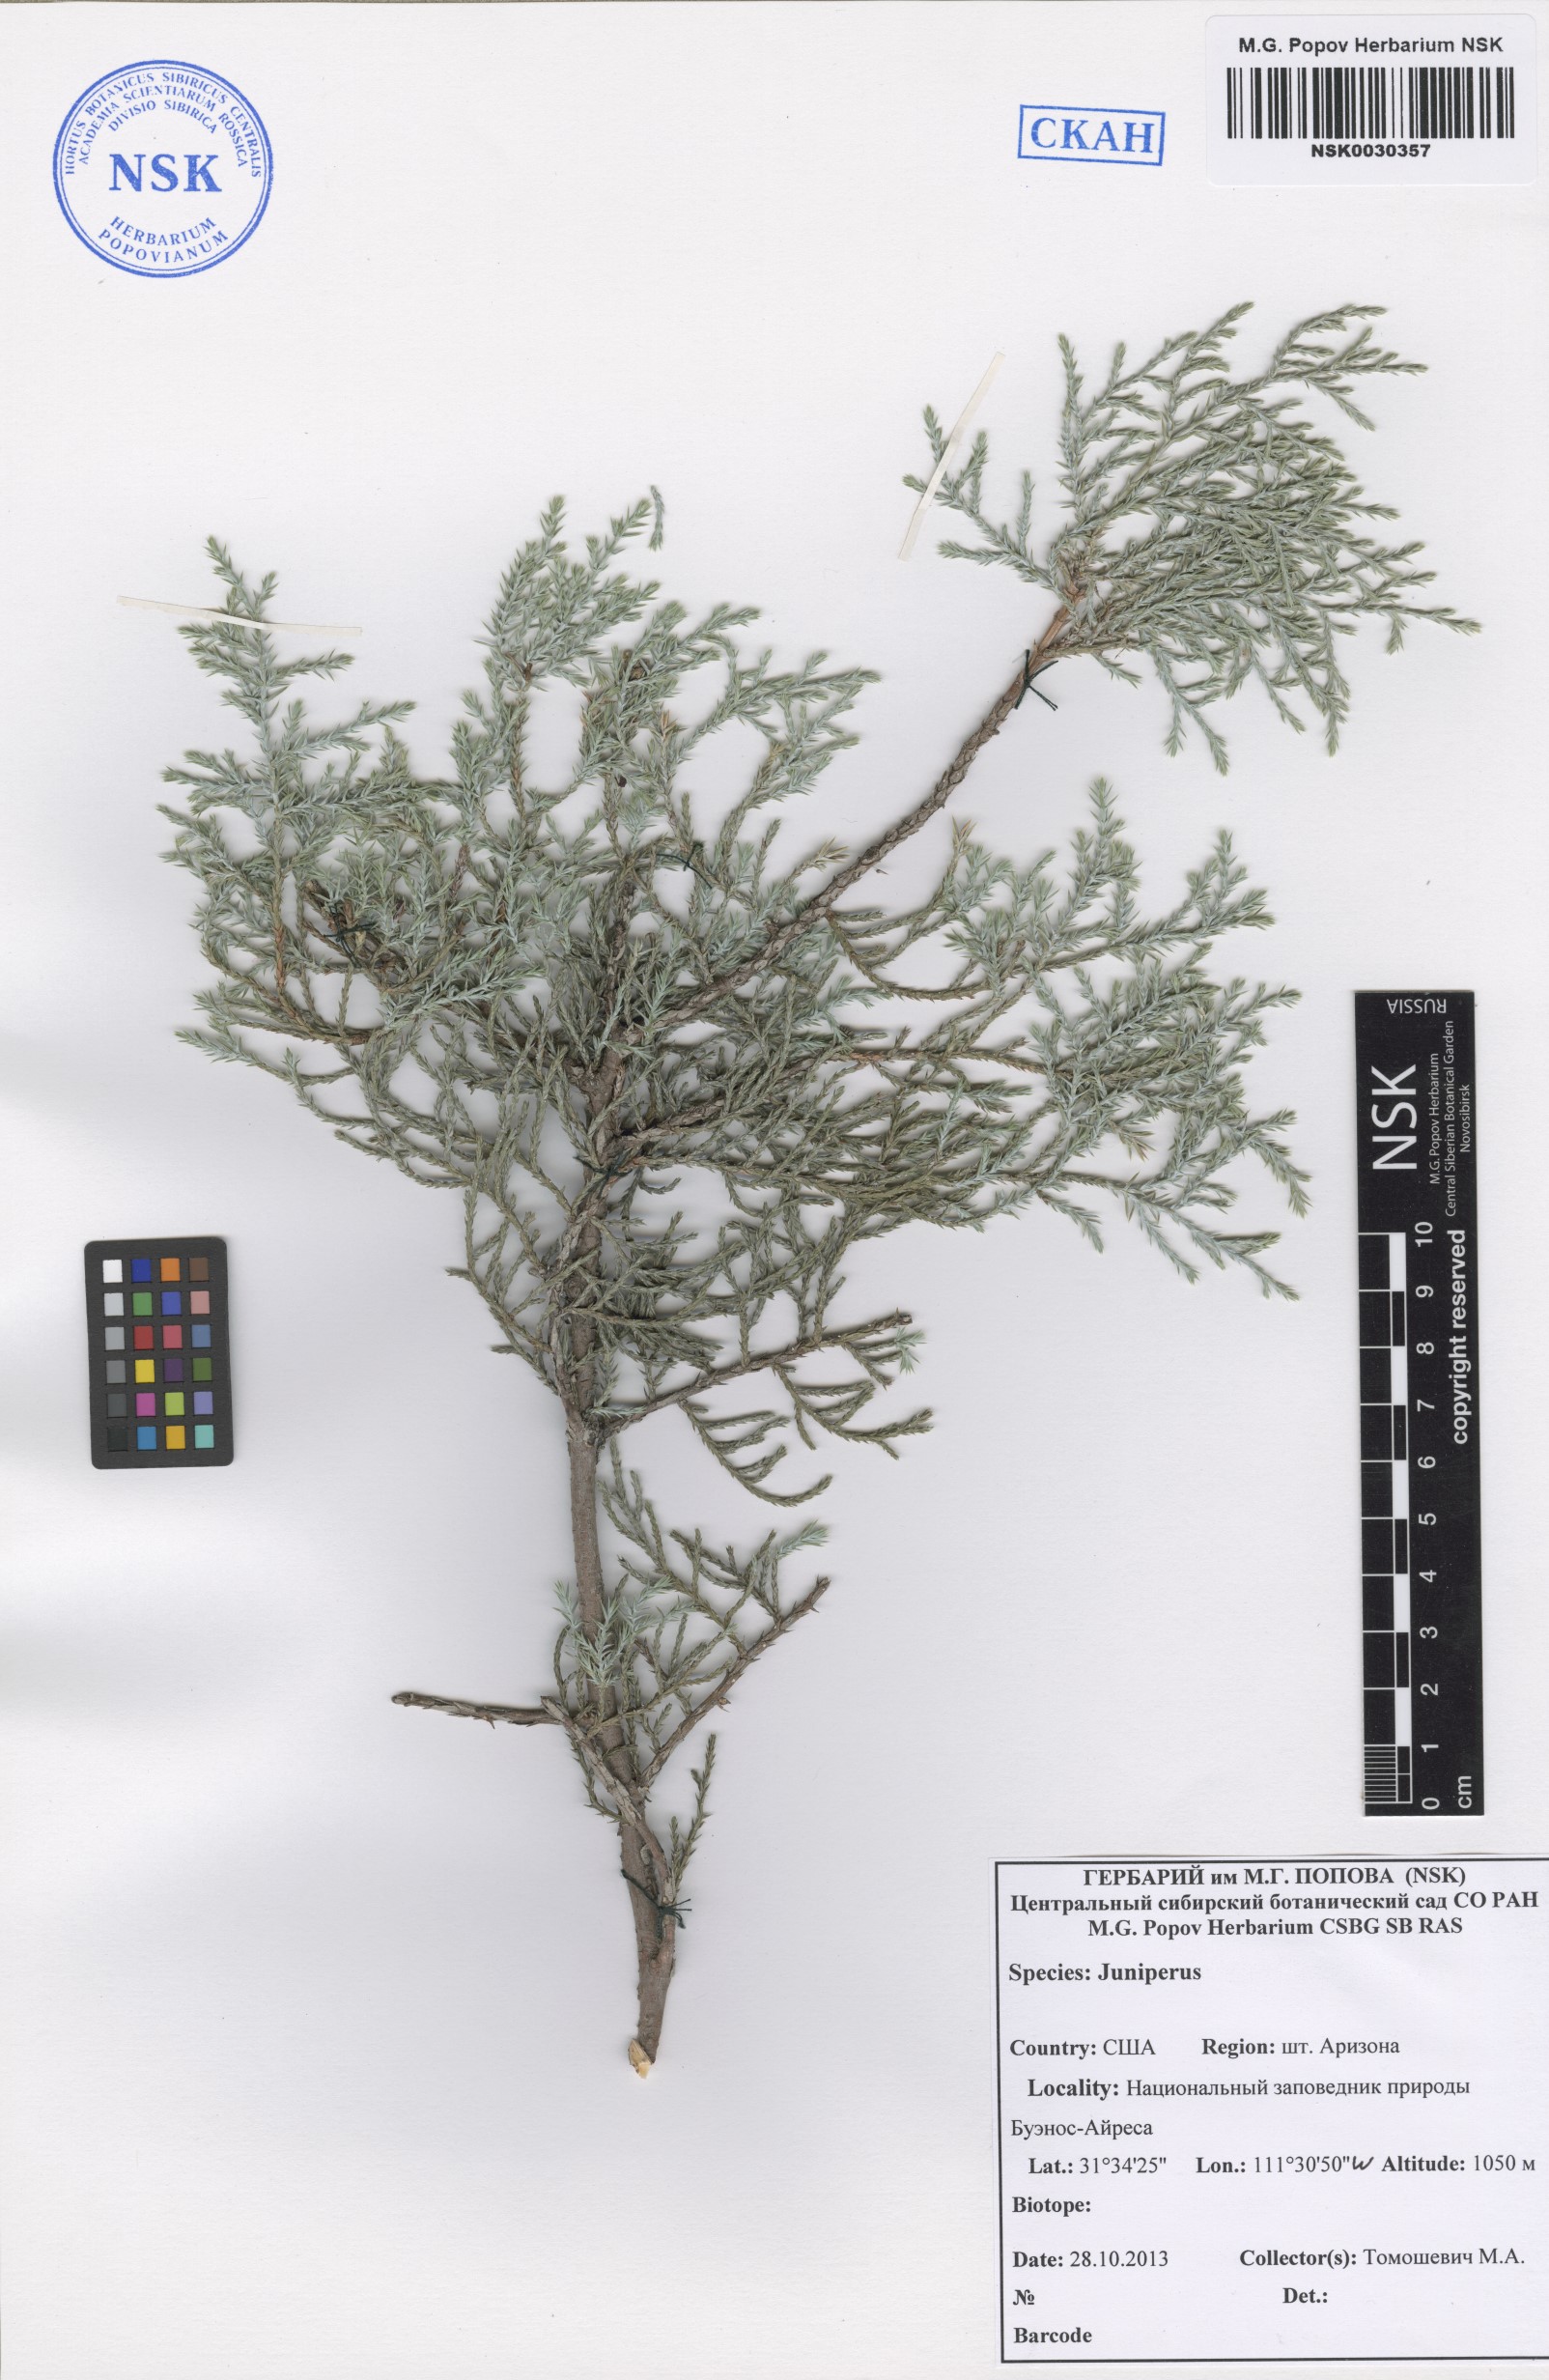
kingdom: Plantae
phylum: Tracheophyta
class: Pinopsida
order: Pinales
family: Cupressaceae
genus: Juniperus
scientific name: Juniperus
